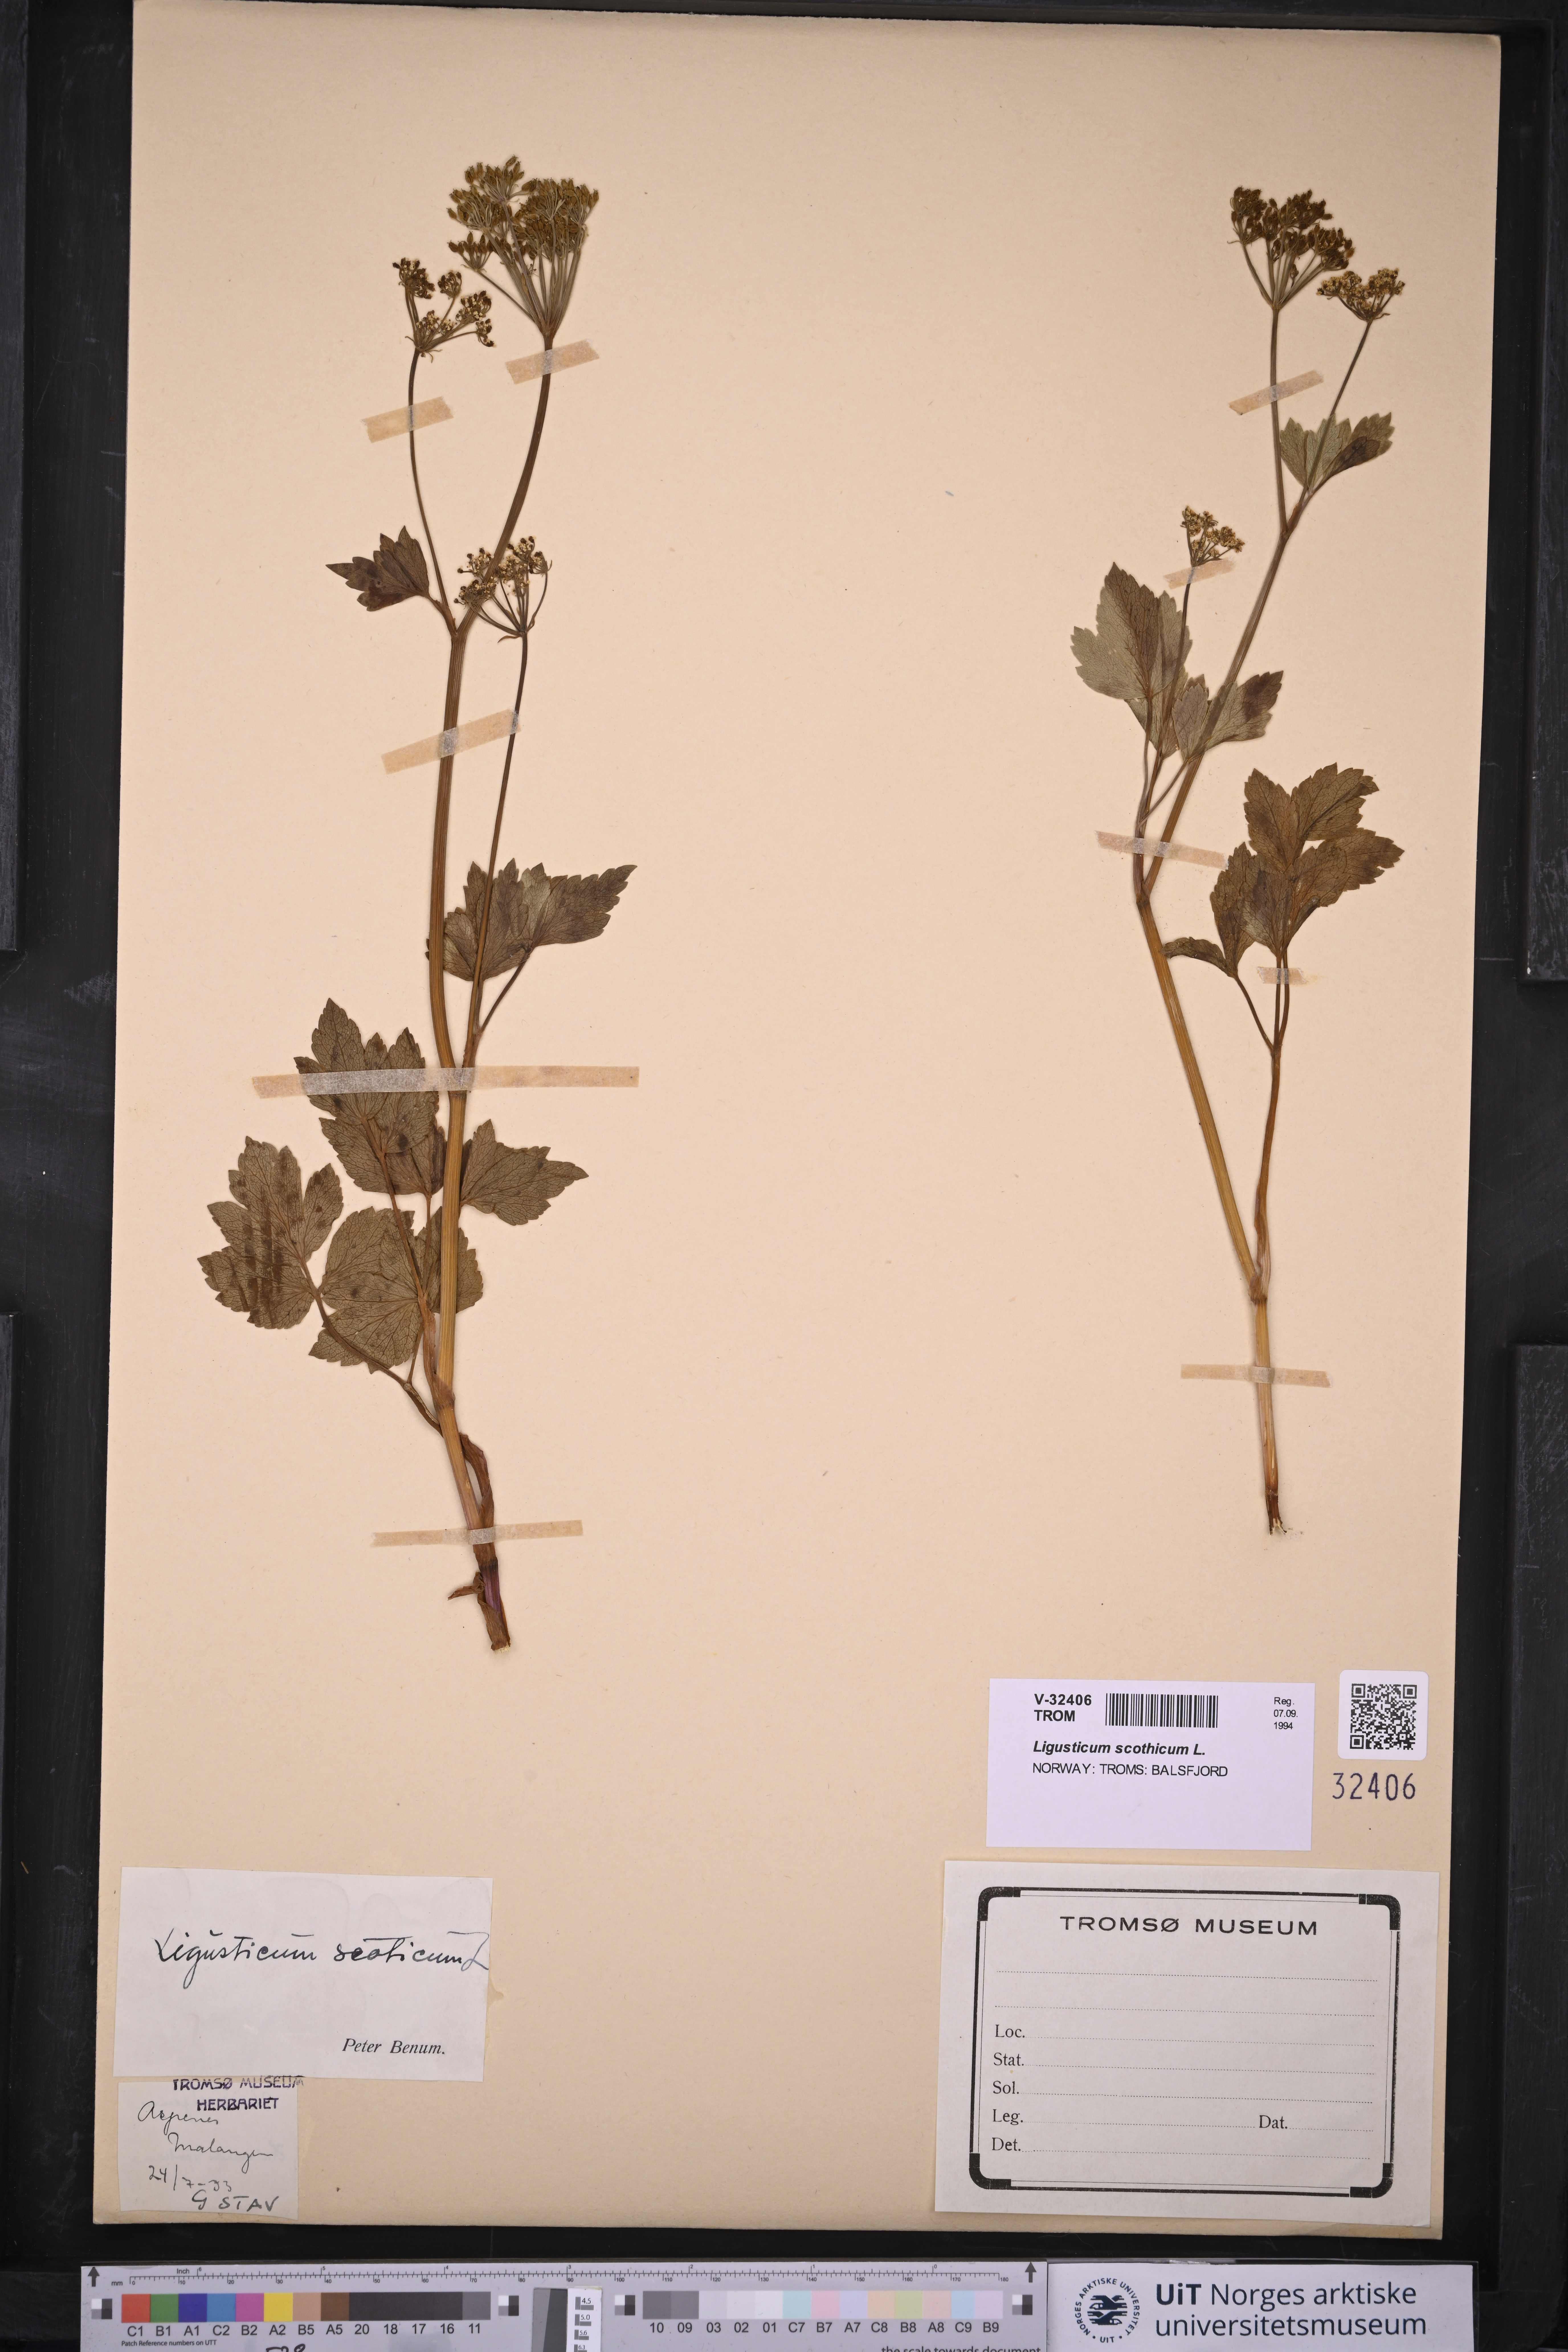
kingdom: Plantae
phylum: Tracheophyta
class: Magnoliopsida
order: Apiales
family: Apiaceae
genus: Ligusticum
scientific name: Ligusticum scothicum
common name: Beach lovage
